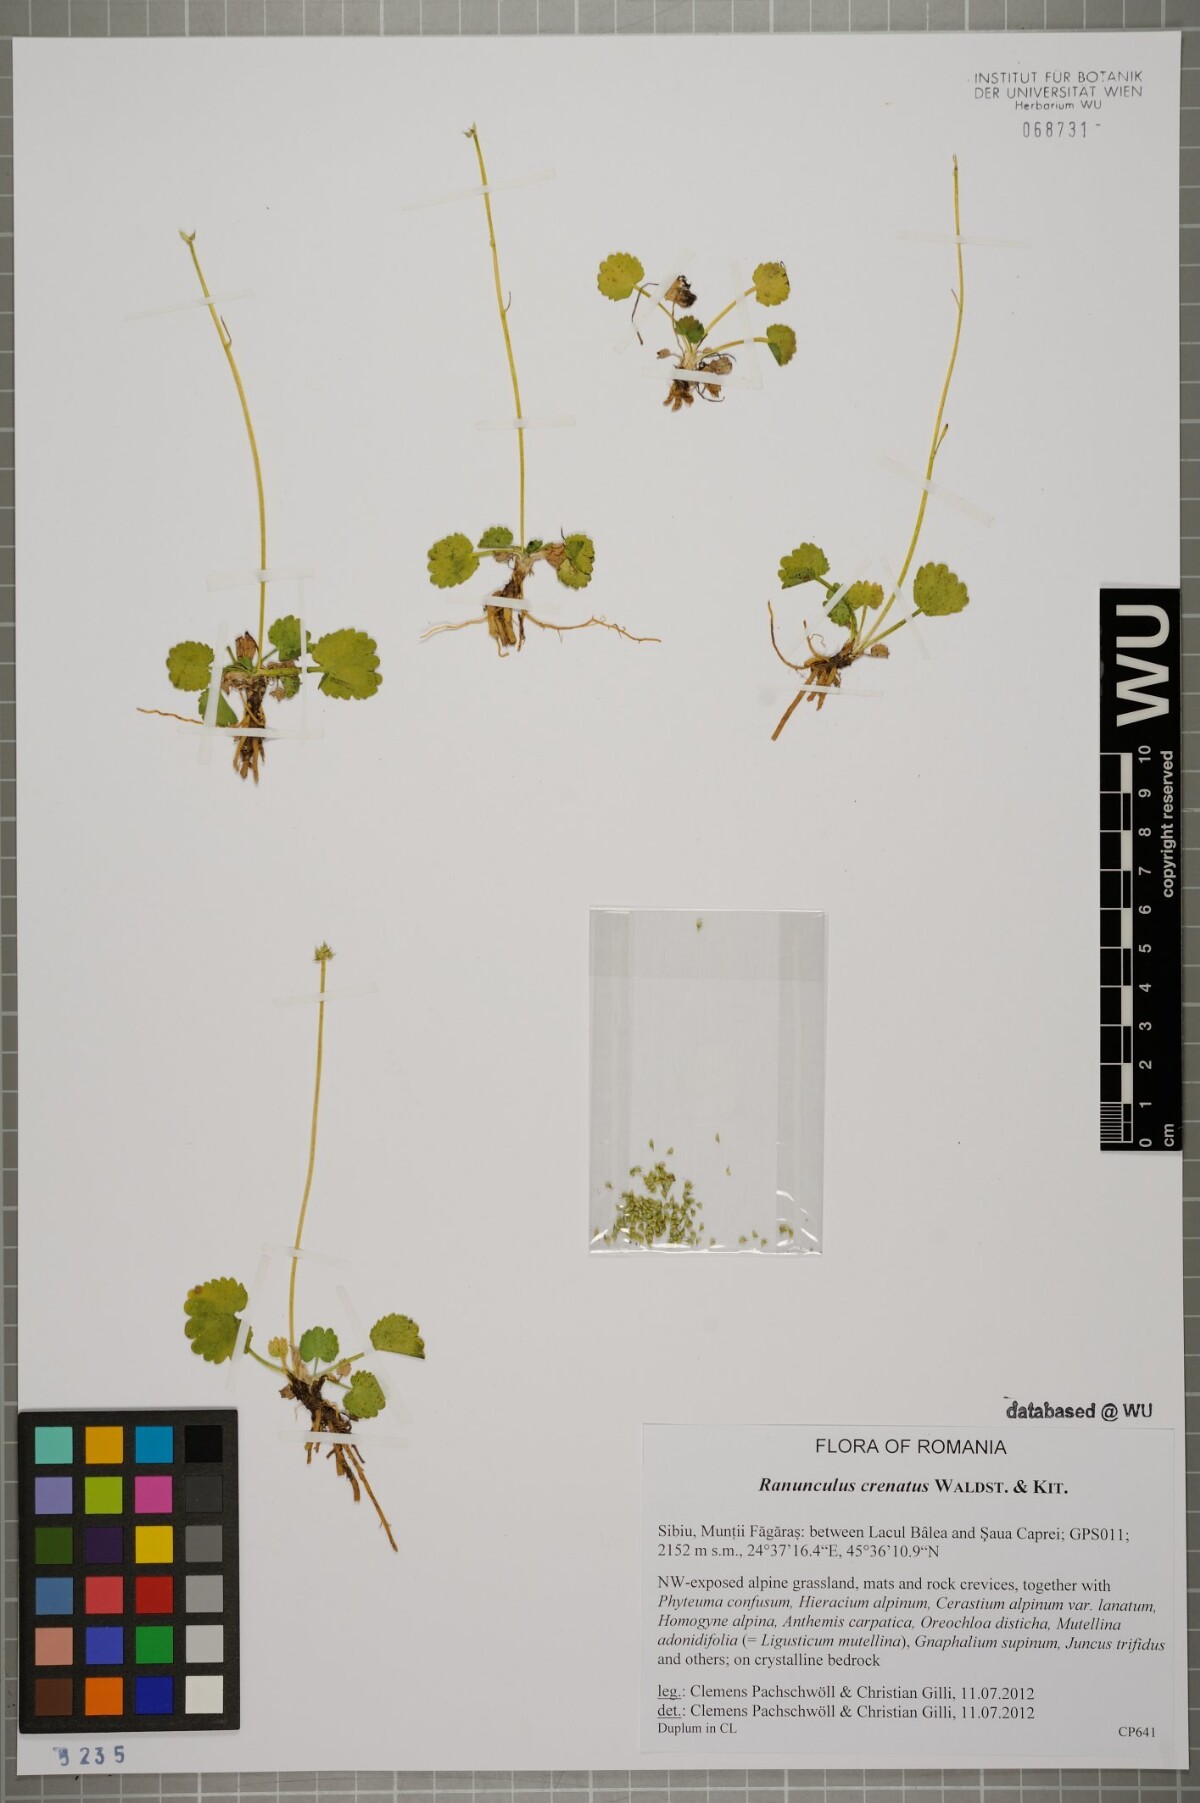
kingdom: Plantae
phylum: Tracheophyta
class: Magnoliopsida
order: Ranunculales
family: Ranunculaceae
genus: Ranunculus
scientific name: Ranunculus crenatus
